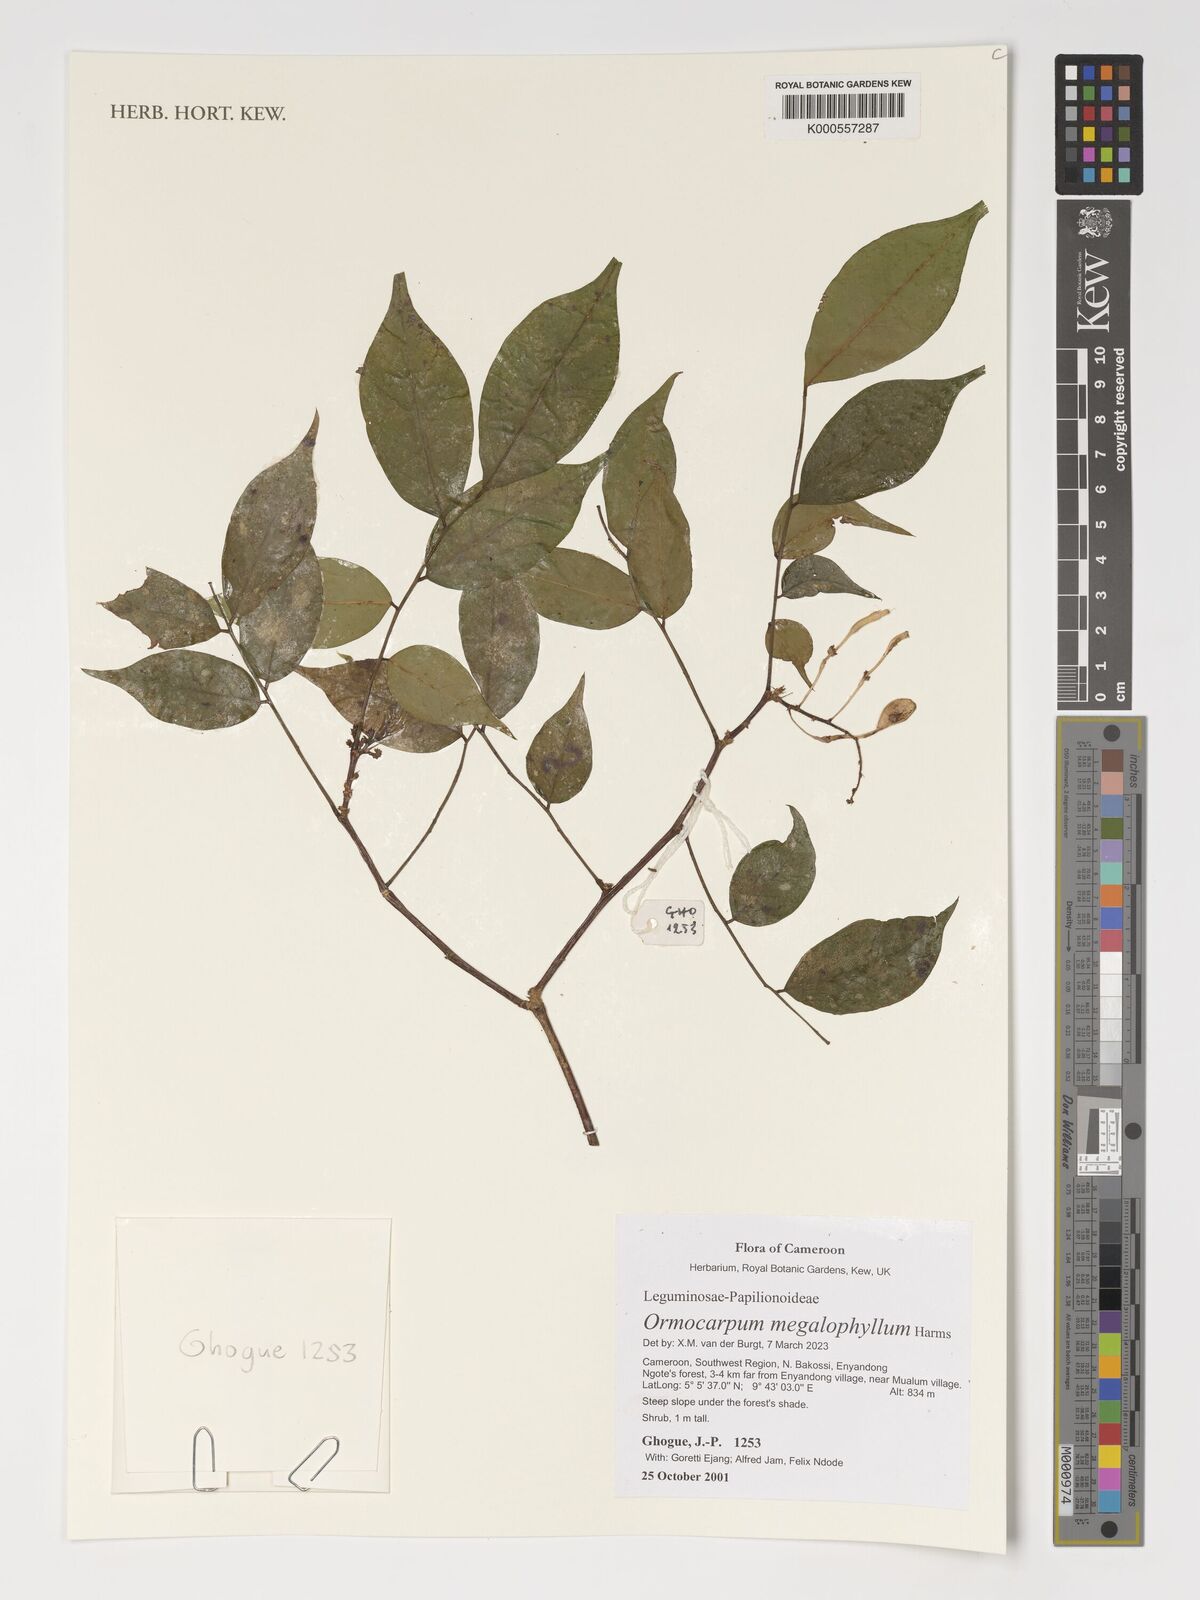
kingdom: Plantae
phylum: Tracheophyta
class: Magnoliopsida
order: Fabales
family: Fabaceae
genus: Ormocarpum
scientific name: Ormocarpum megalophyllum
